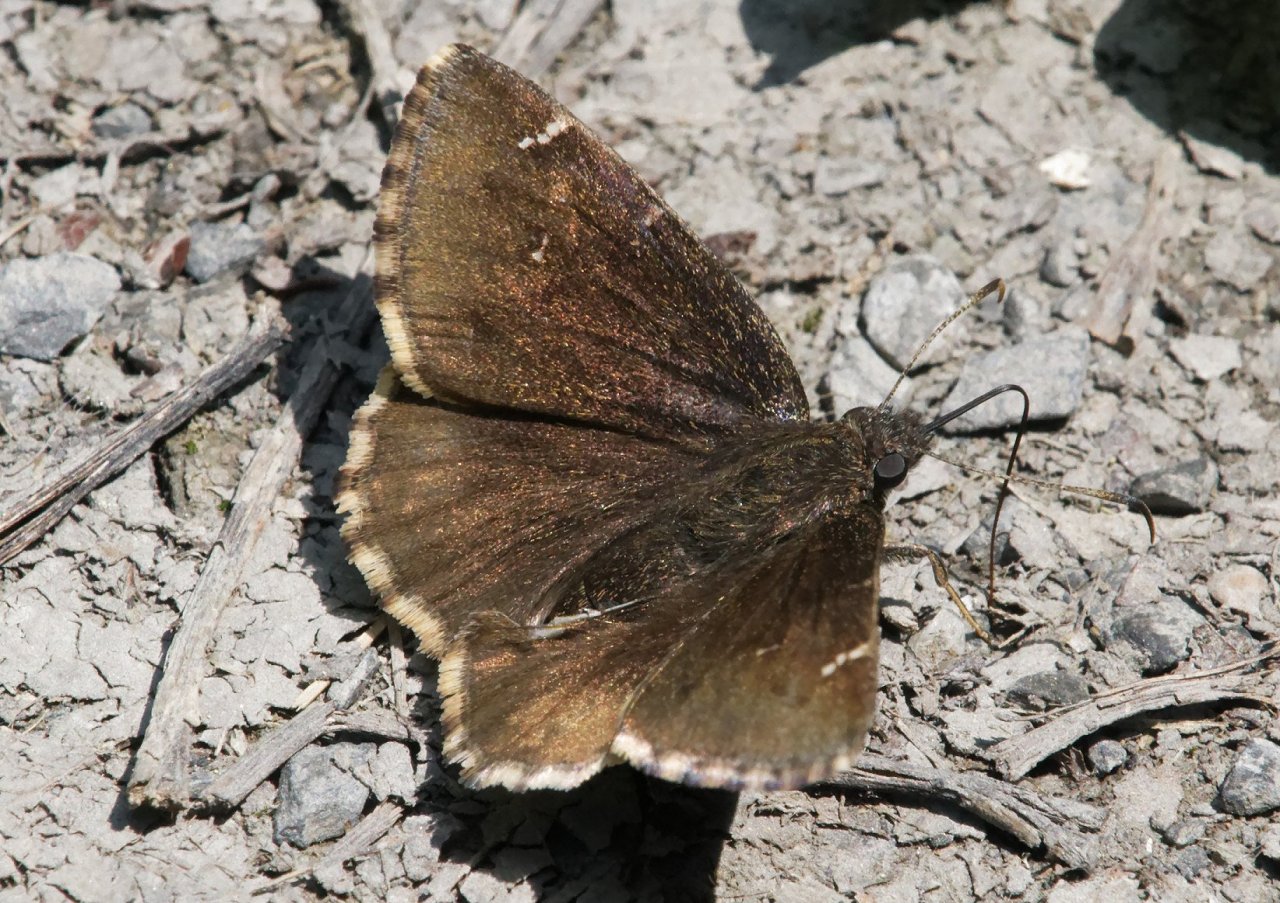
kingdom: Animalia
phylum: Arthropoda
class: Insecta
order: Lepidoptera
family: Hesperiidae
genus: Autochton
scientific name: Autochton
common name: Northern Cloudywing
